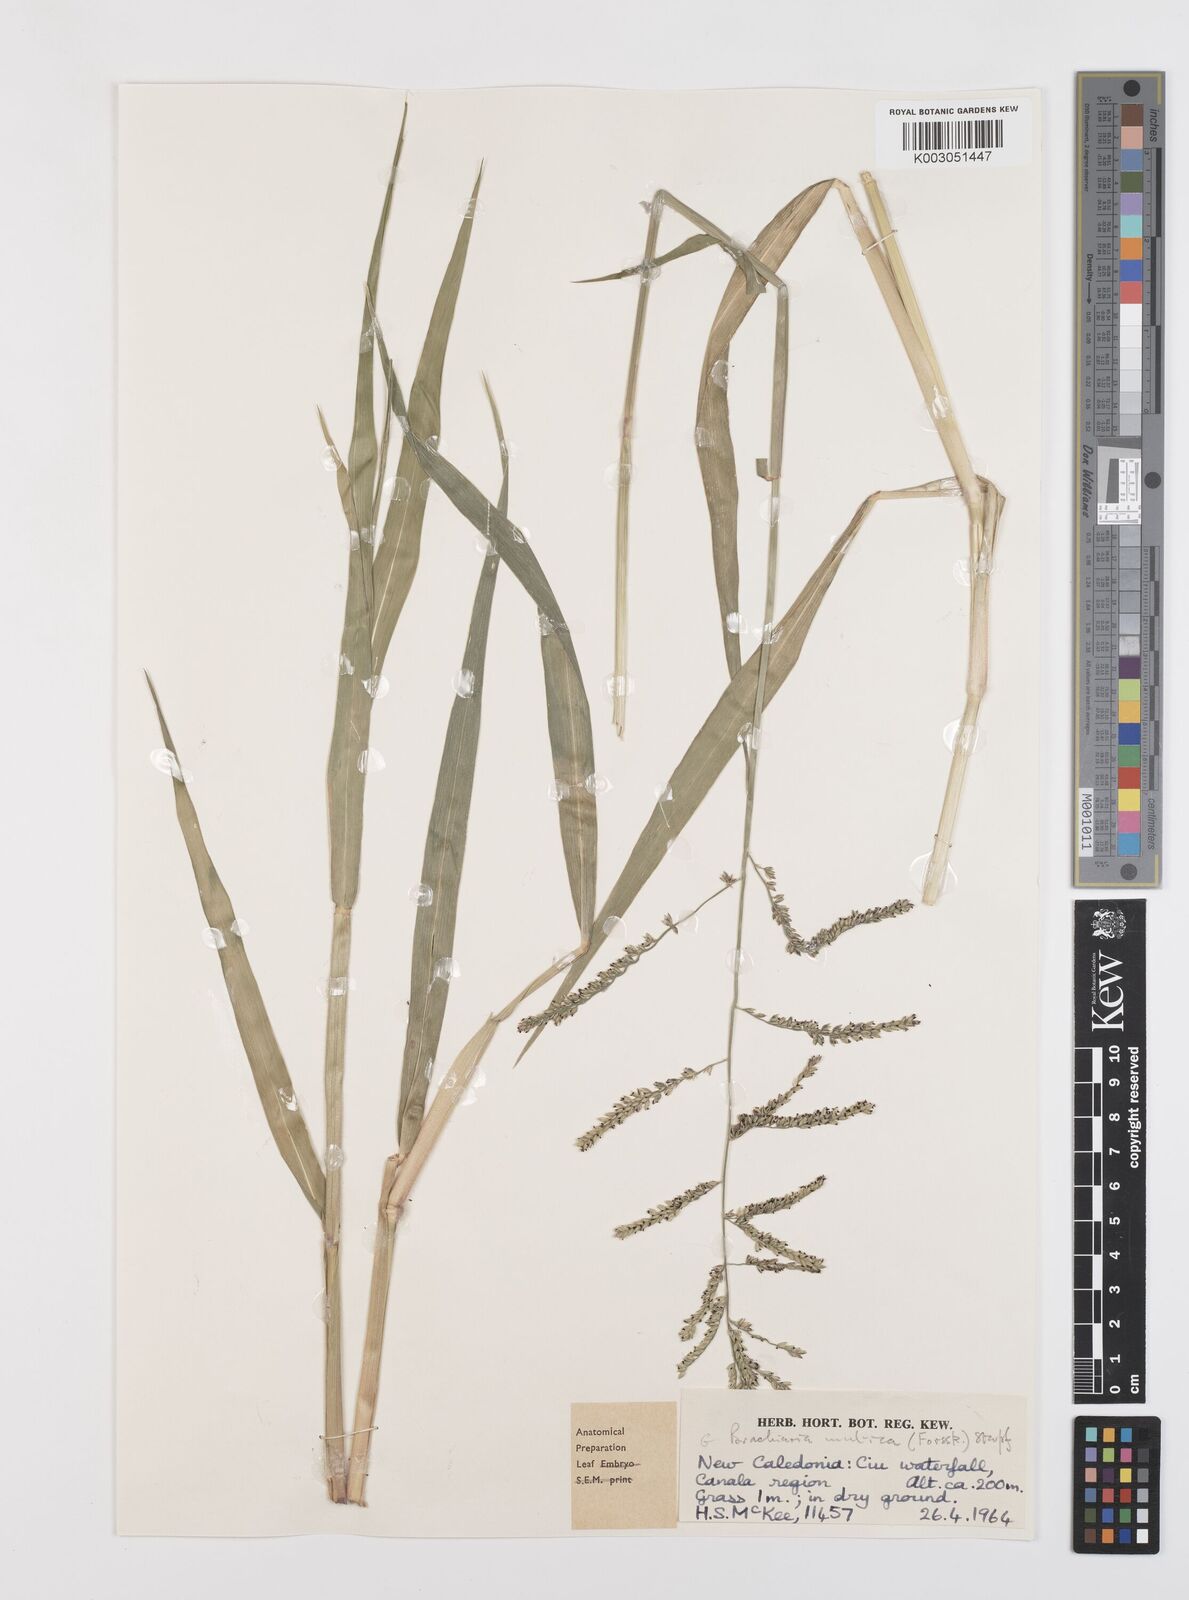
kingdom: Plantae
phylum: Tracheophyta
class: Liliopsida
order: Poales
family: Poaceae
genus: Urochloa
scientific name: Urochloa mutica
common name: Para grass
